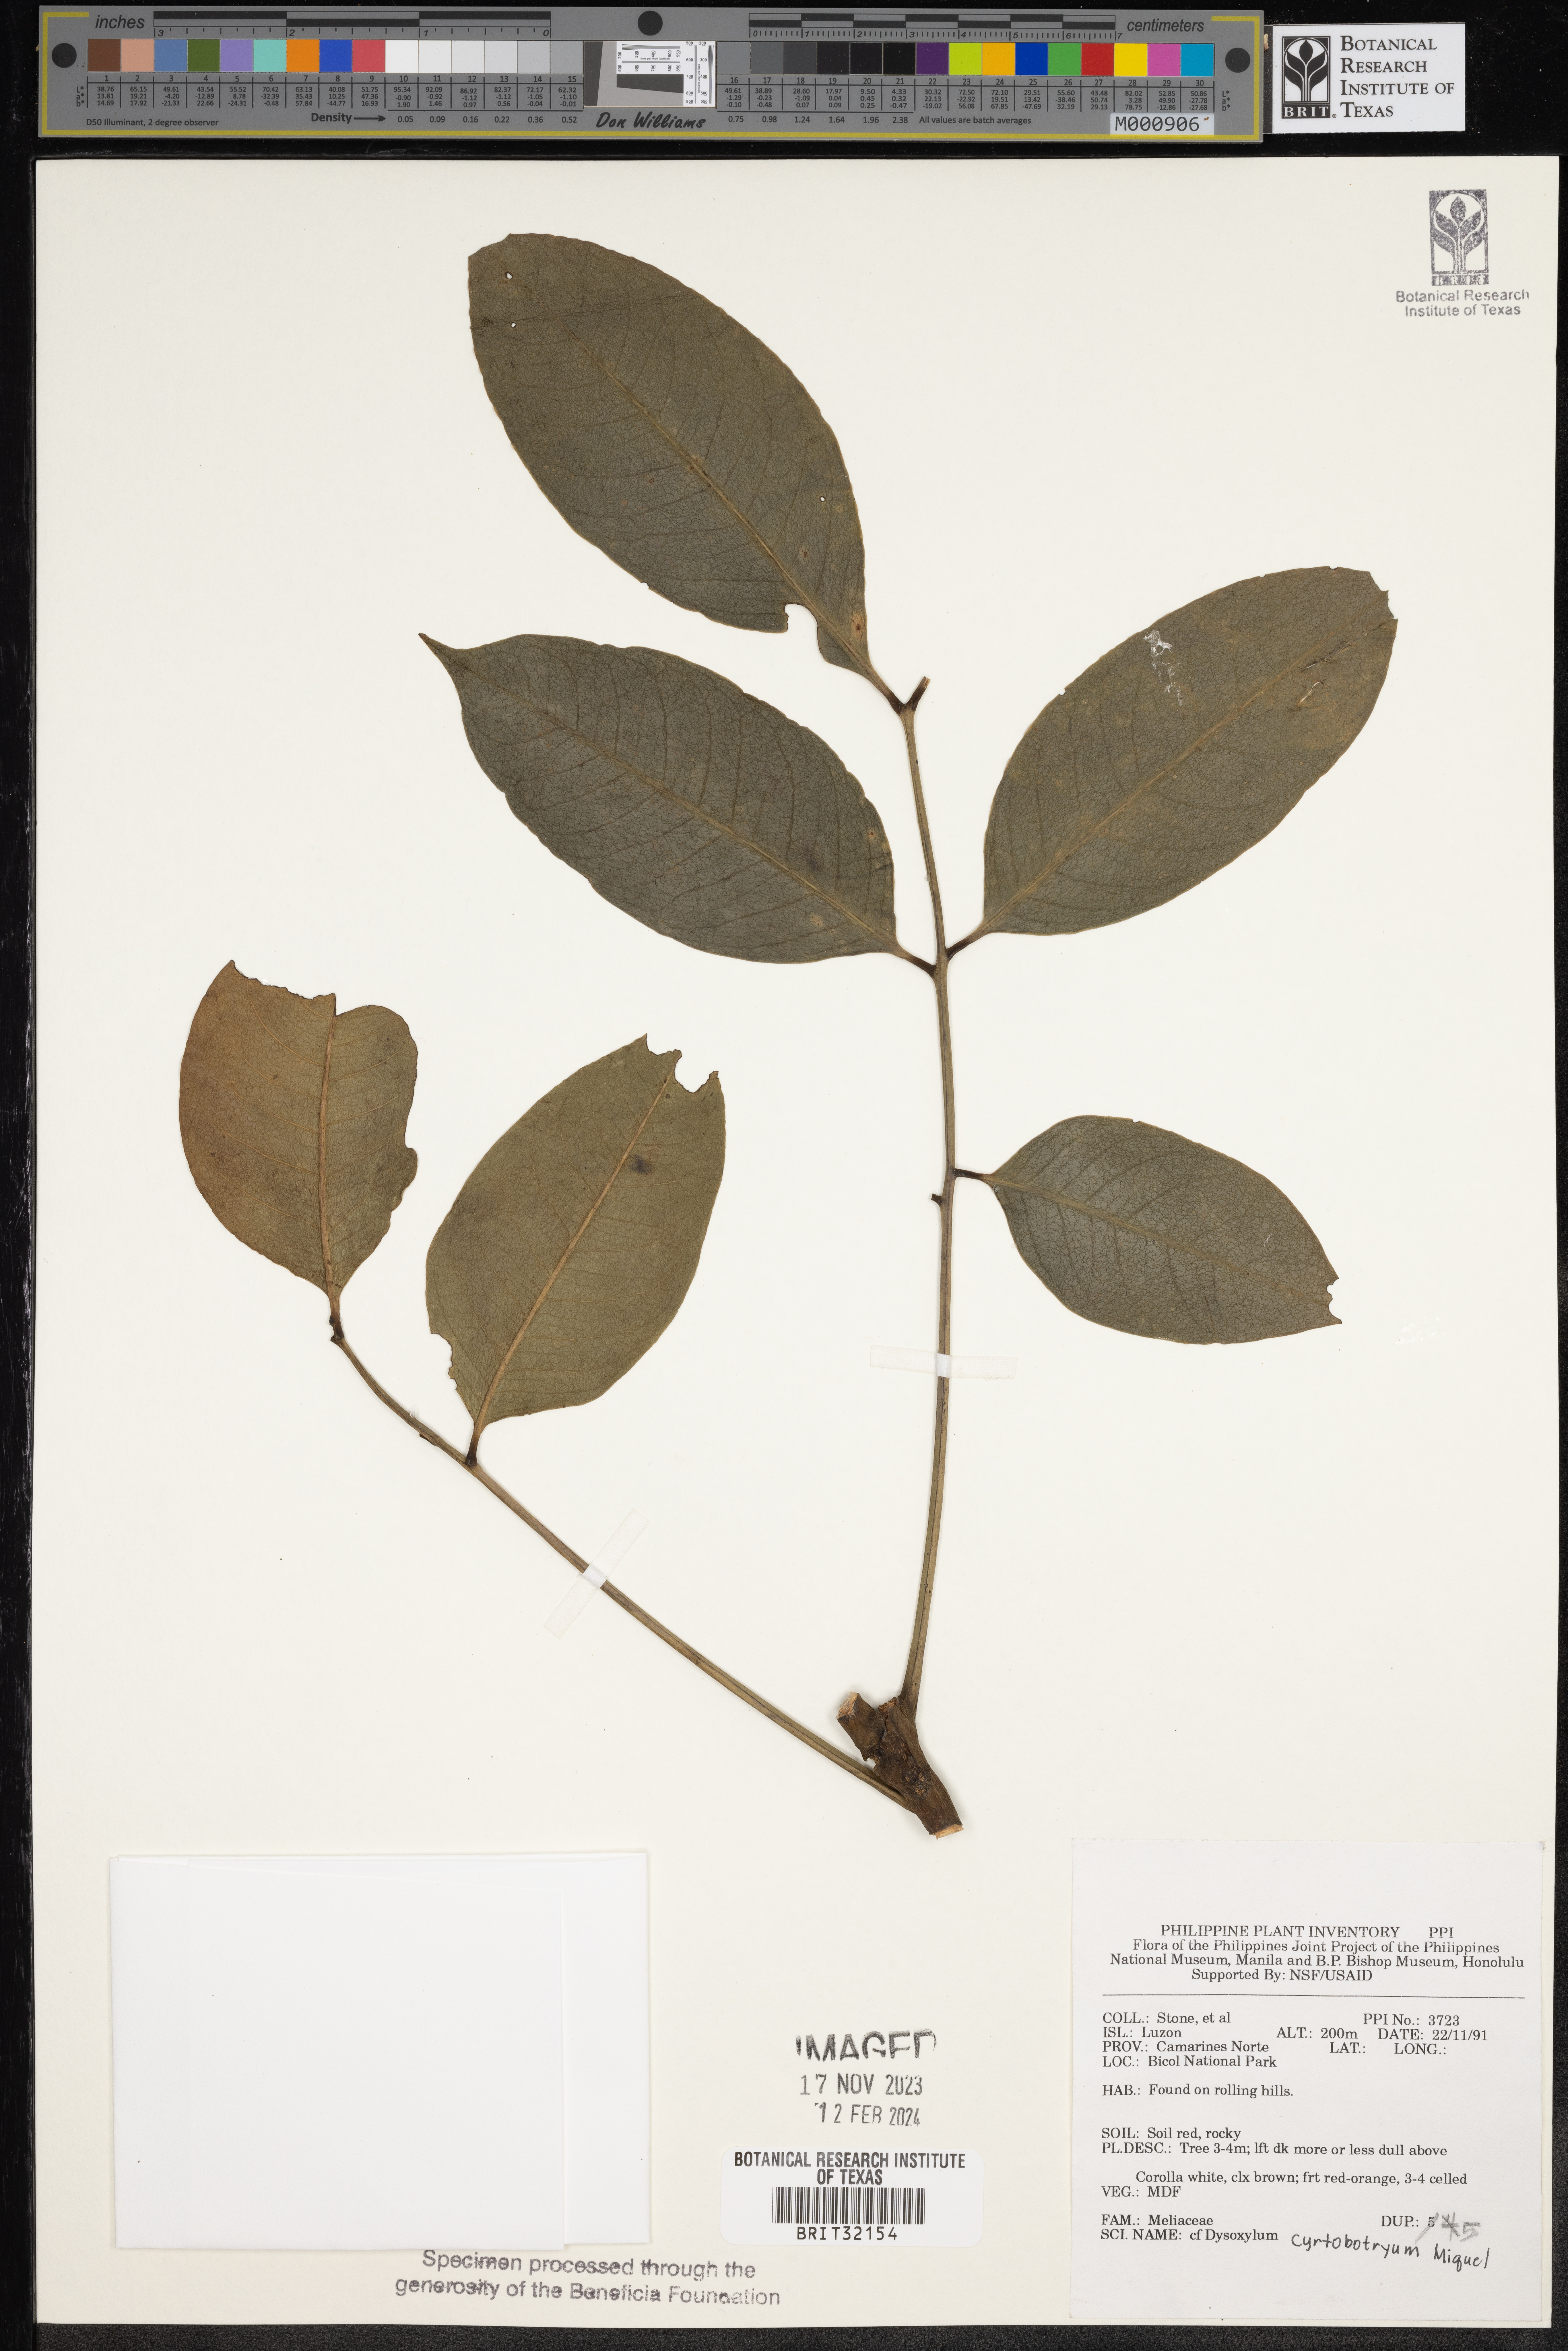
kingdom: Plantae
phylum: Tracheophyta
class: Magnoliopsida
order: Sapindales
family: Meliaceae
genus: Dysoxylum
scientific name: Dysoxylum cyrtobotryum
